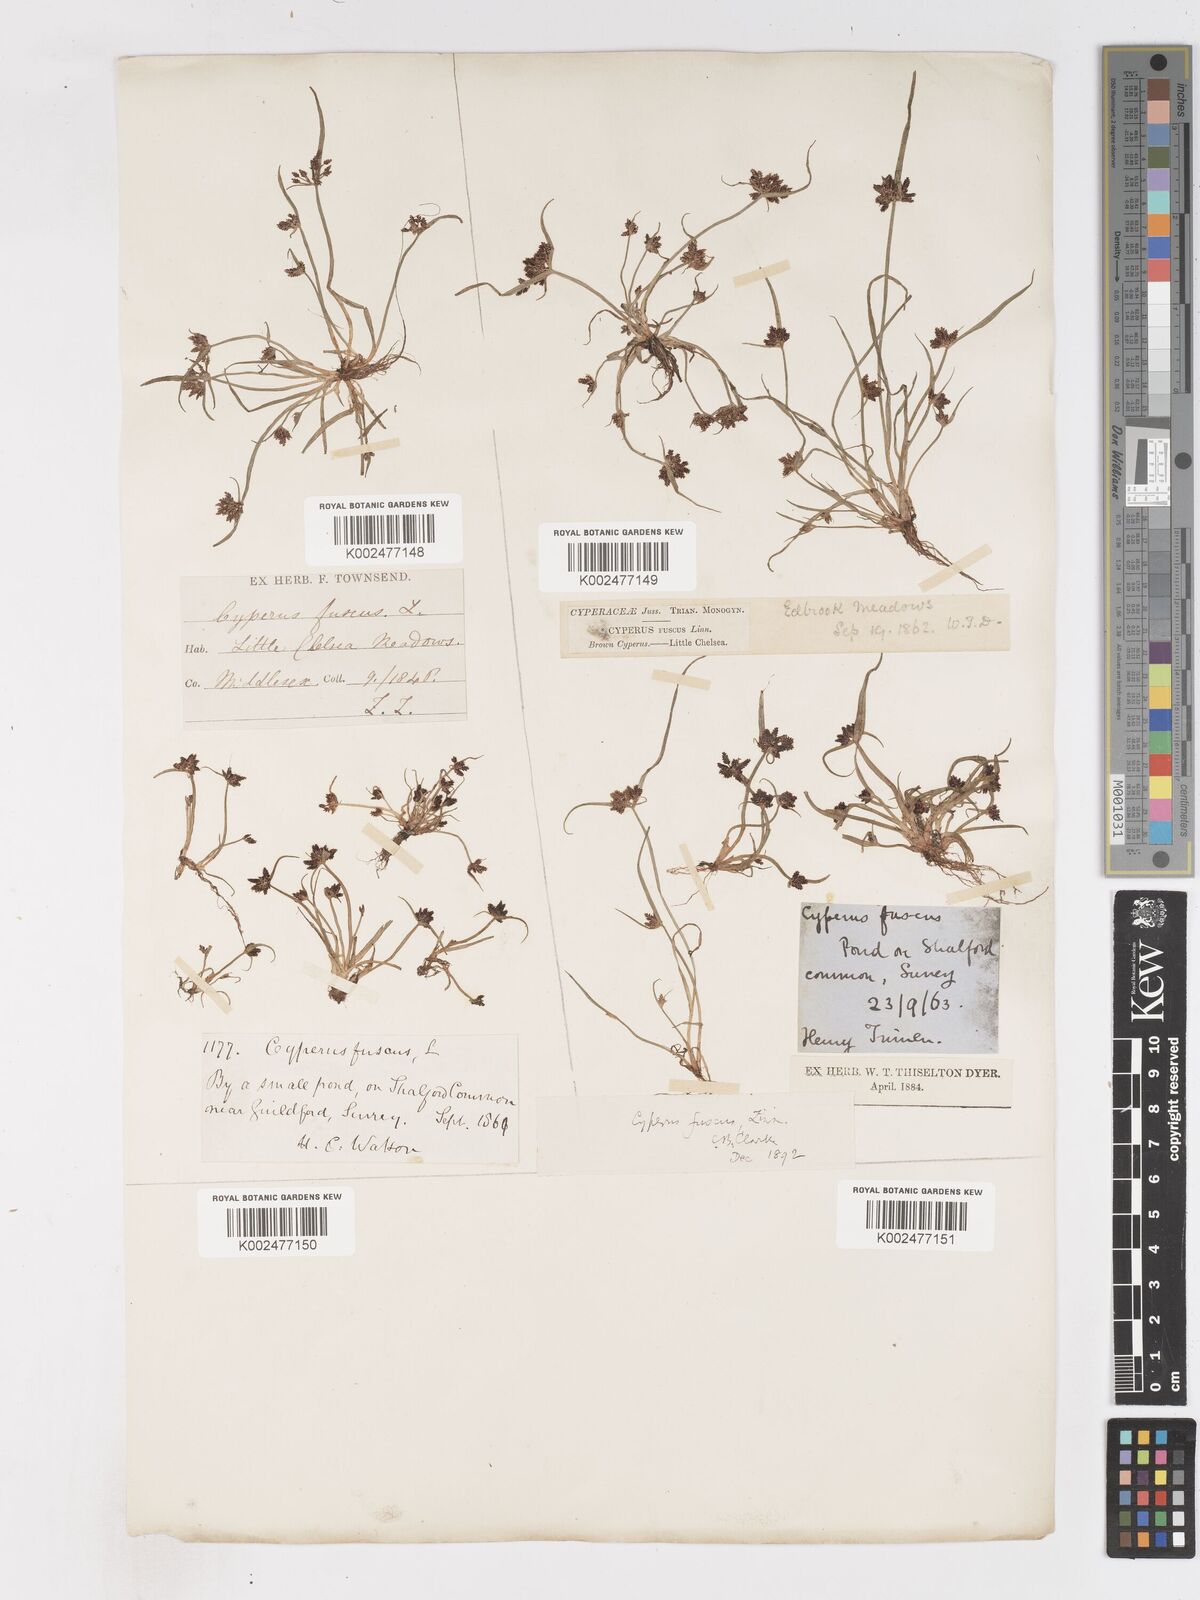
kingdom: Plantae
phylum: Tracheophyta
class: Liliopsida
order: Poales
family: Cyperaceae
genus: Cyperus
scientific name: Cyperus fuscus
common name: Brown galingale
